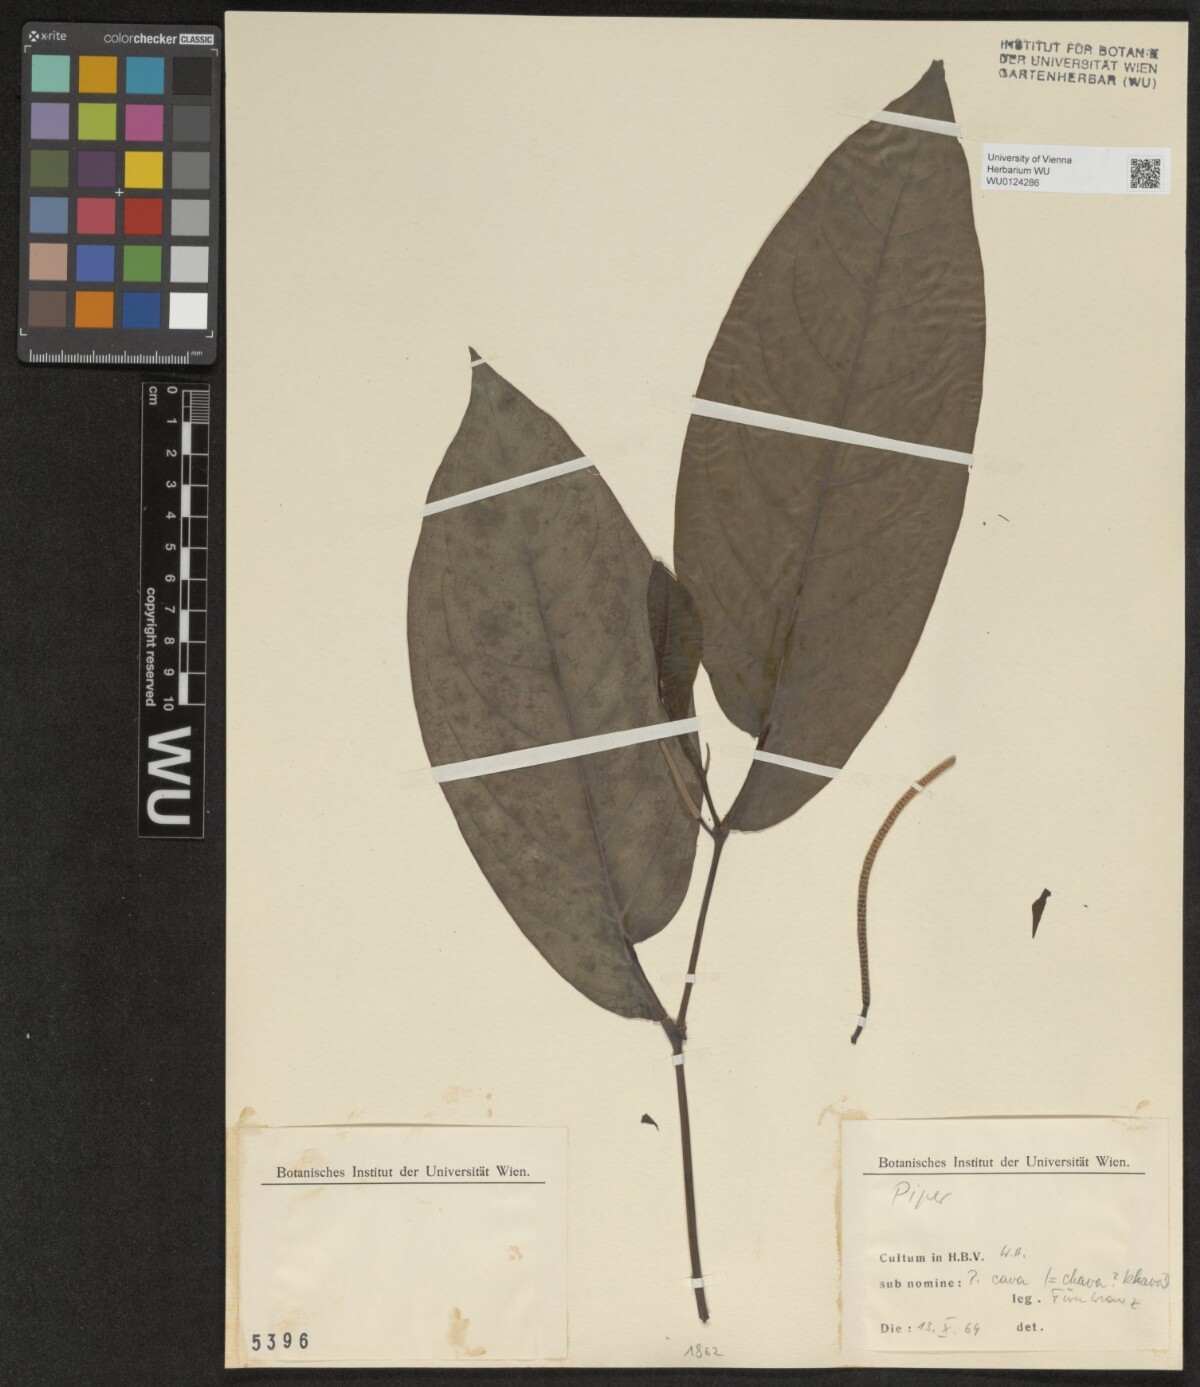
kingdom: Plantae
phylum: Tracheophyta
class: Magnoliopsida
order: Piperales
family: Piperaceae
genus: Piper
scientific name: Piper
